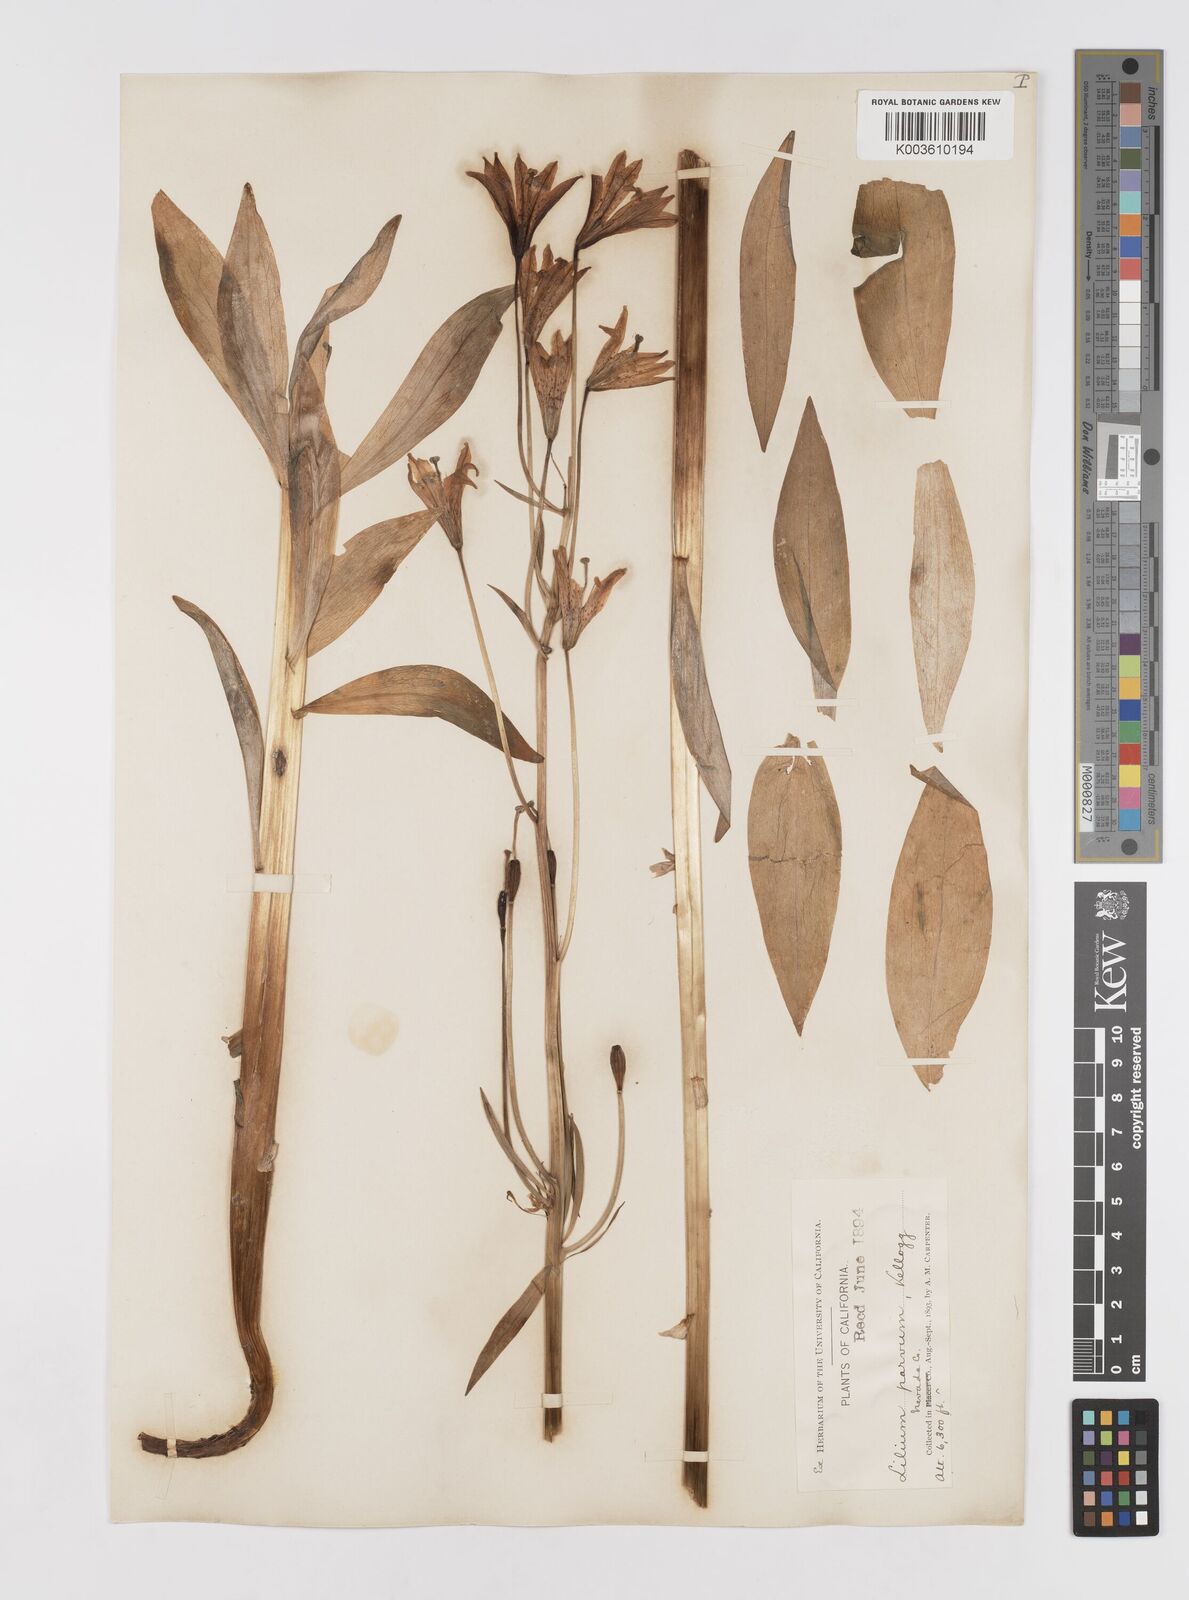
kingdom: Plantae
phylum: Tracheophyta
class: Liliopsida
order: Liliales
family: Liliaceae
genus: Lilium
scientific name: Lilium parvum
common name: Alpine lily
